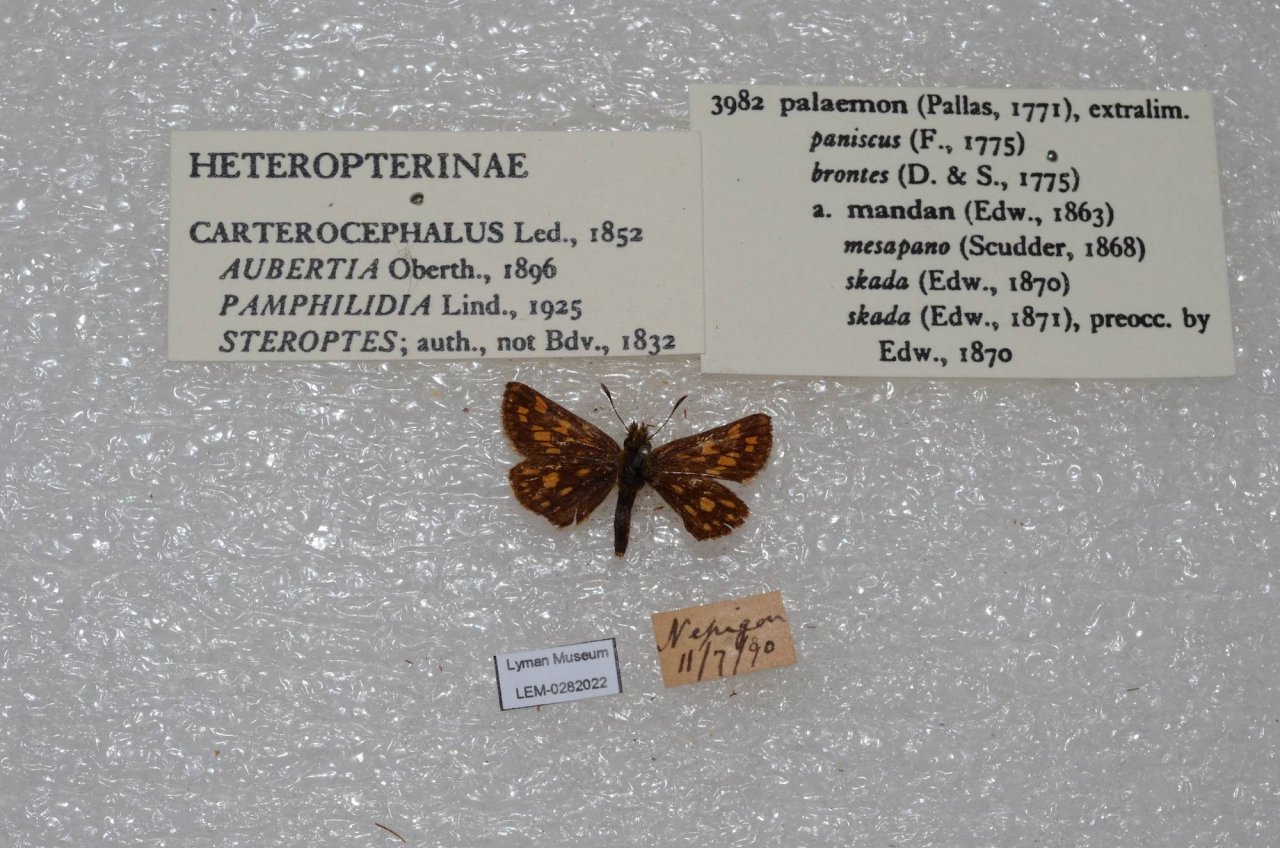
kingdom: Animalia
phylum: Arthropoda
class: Insecta
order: Lepidoptera
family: Hesperiidae
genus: Carterocephalus
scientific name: Carterocephalus palaemon
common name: Chequered Skipper
